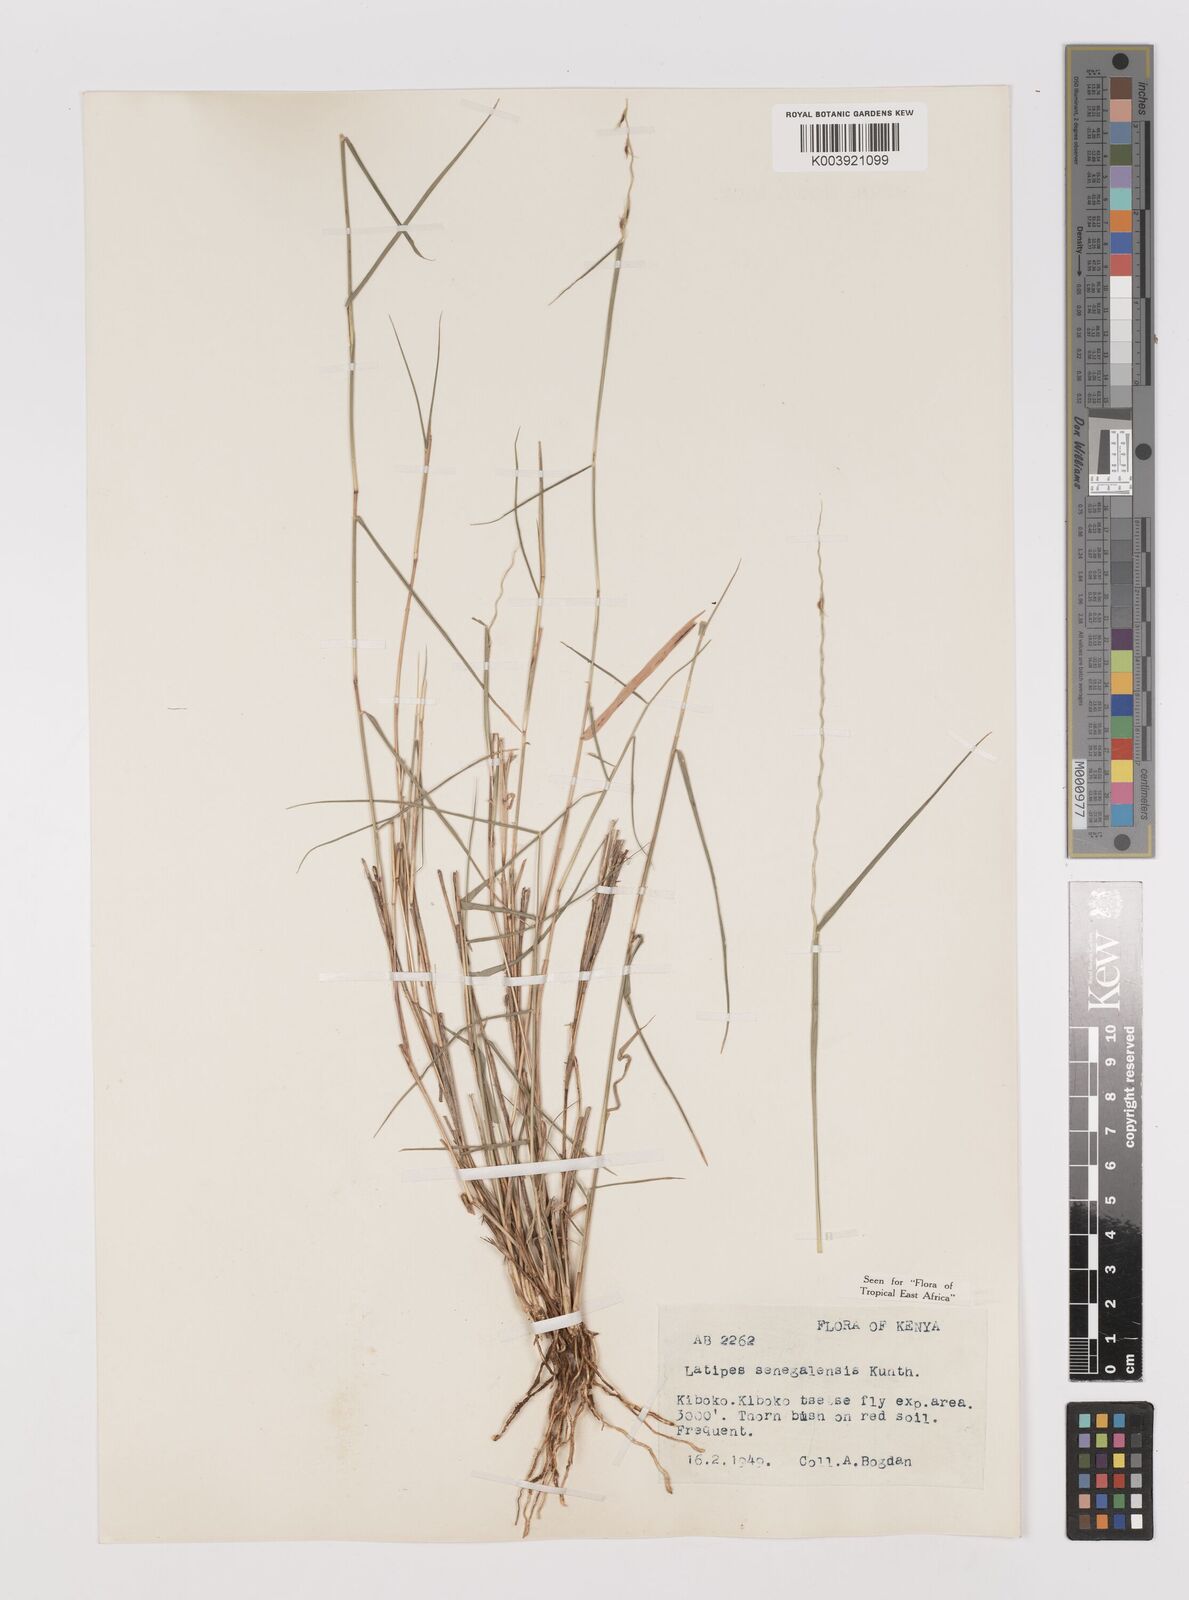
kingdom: Plantae
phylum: Tracheophyta
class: Liliopsida
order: Poales
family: Poaceae
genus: Leptothrium
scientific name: Leptothrium senegalense
